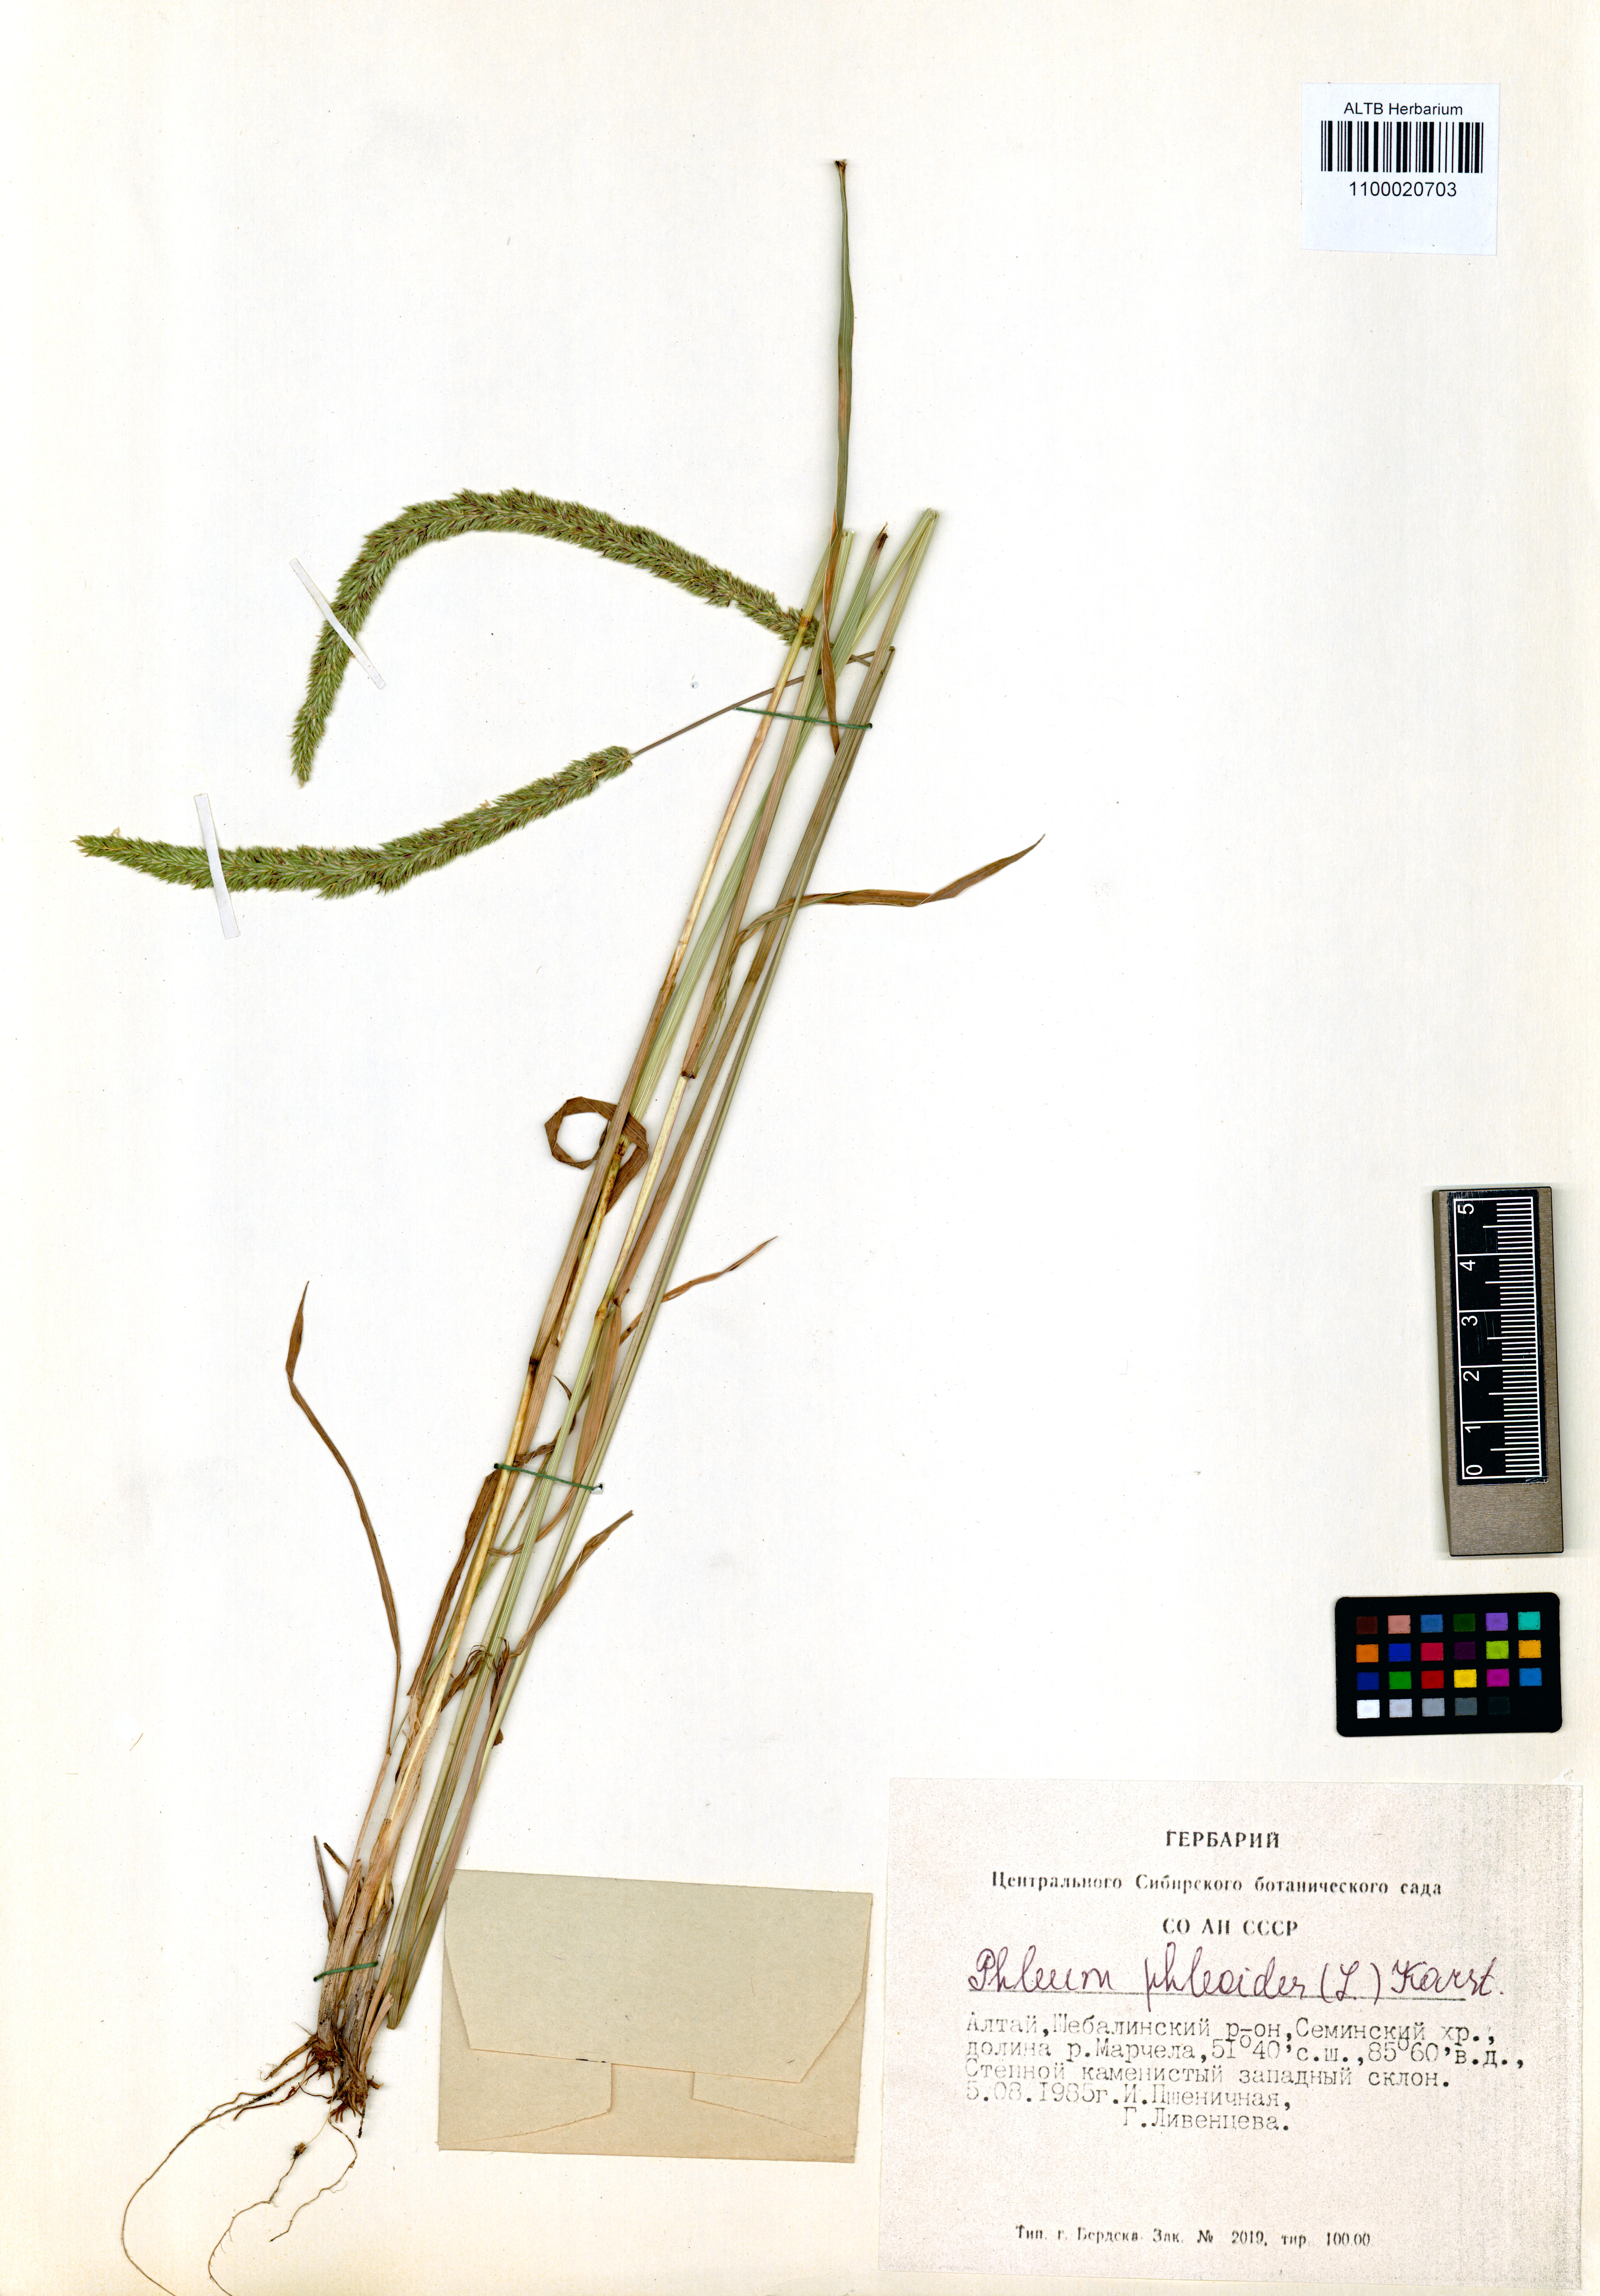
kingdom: Plantae
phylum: Tracheophyta
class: Liliopsida
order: Poales
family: Poaceae
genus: Phleum
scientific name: Phleum phleoides
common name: Purple-stem cat's-tail
